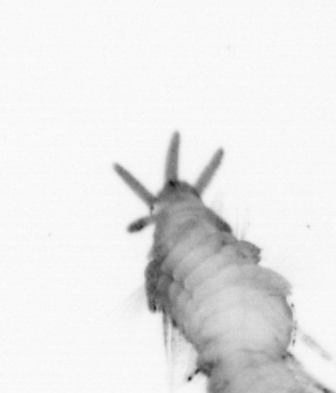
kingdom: Animalia
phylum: Annelida
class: Polychaeta
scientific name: Polychaeta
